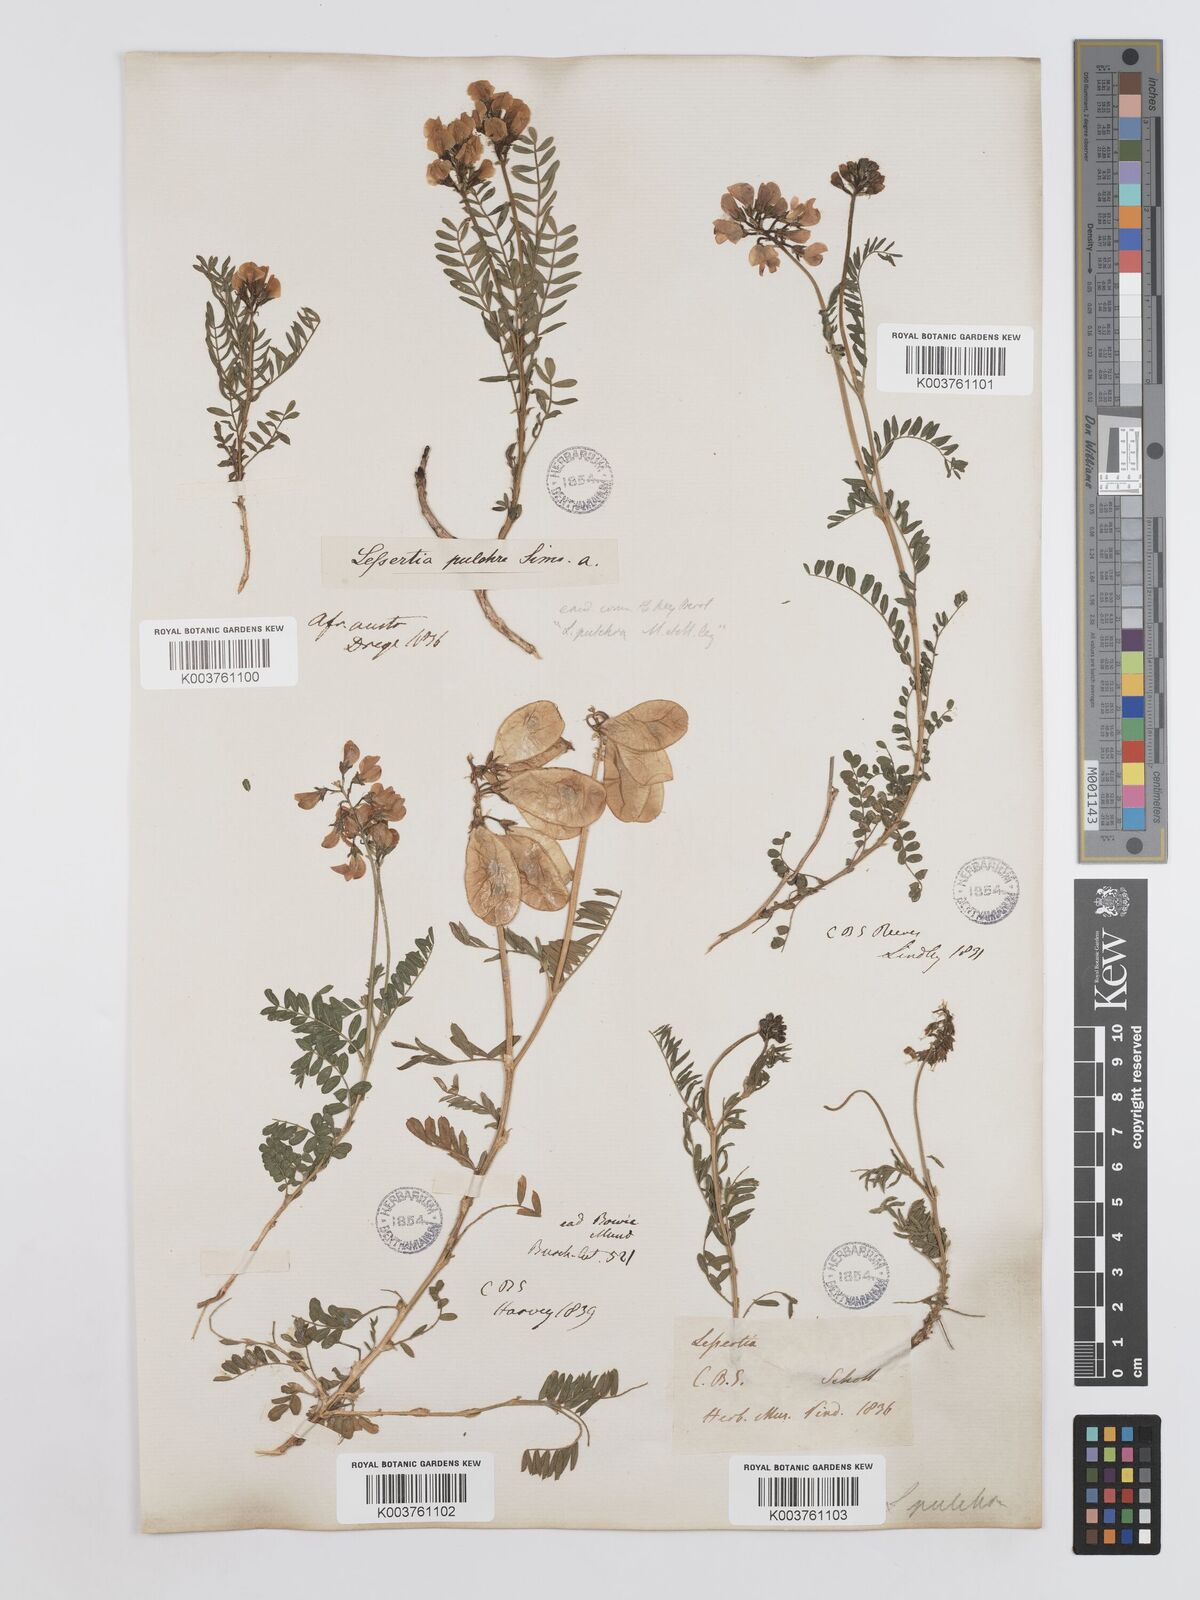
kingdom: Plantae
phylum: Tracheophyta
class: Magnoliopsida
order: Fabales
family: Fabaceae
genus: Lessertia
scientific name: Lessertia capensis
